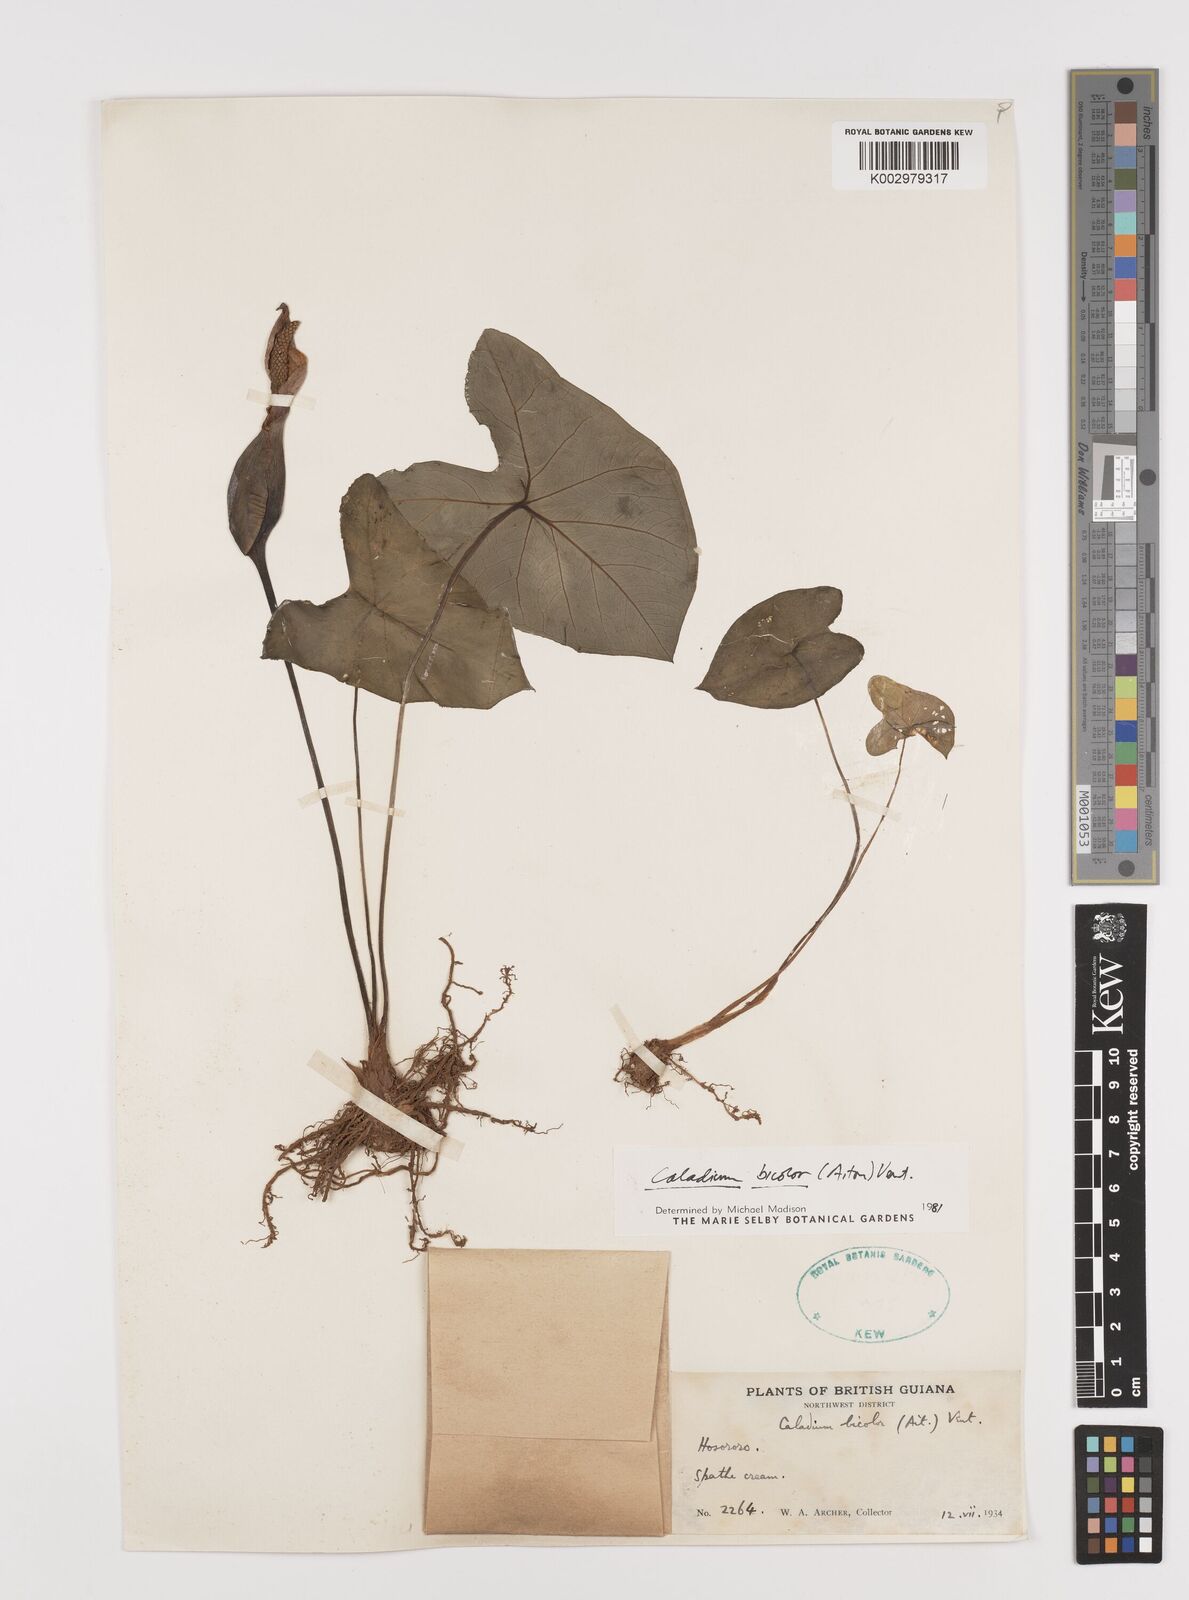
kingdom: Plantae
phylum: Tracheophyta
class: Liliopsida
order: Alismatales
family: Araceae
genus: Caladium
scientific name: Caladium bicolor
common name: Artist's pallet
